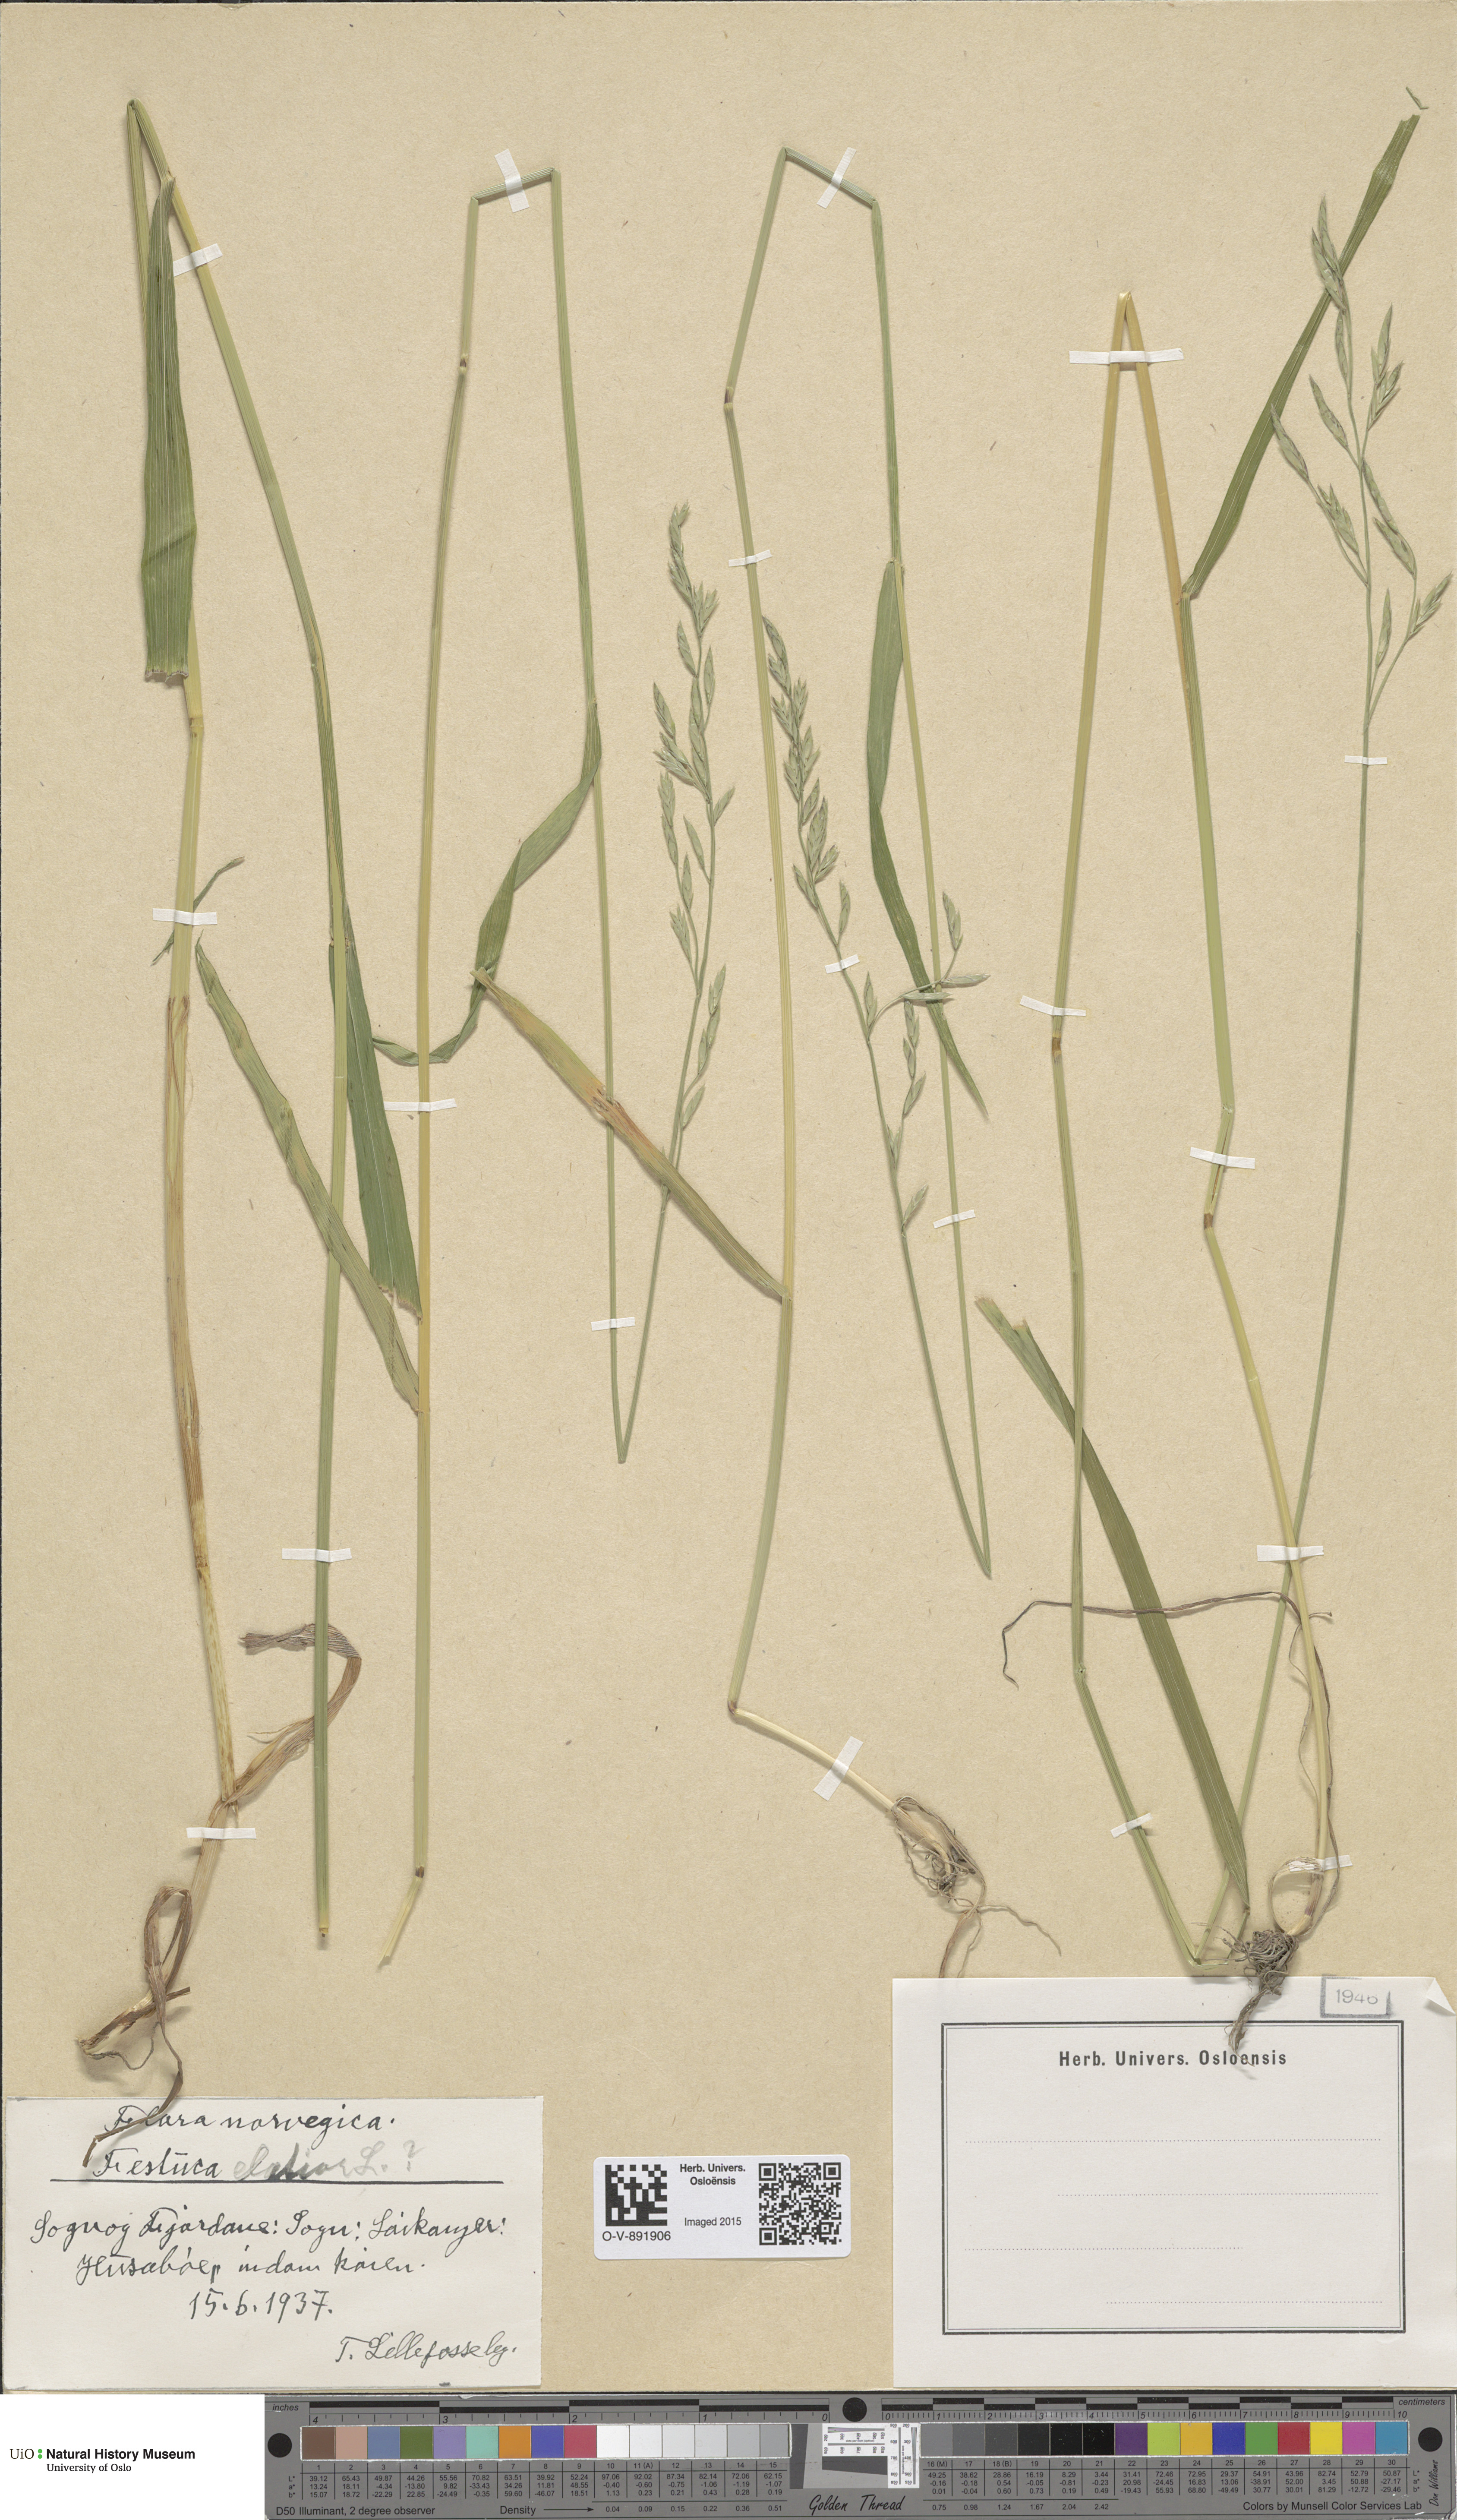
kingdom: Plantae
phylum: Tracheophyta
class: Liliopsida
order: Poales
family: Poaceae
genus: Lolium
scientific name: Lolium arundinaceum
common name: Reed fescue
